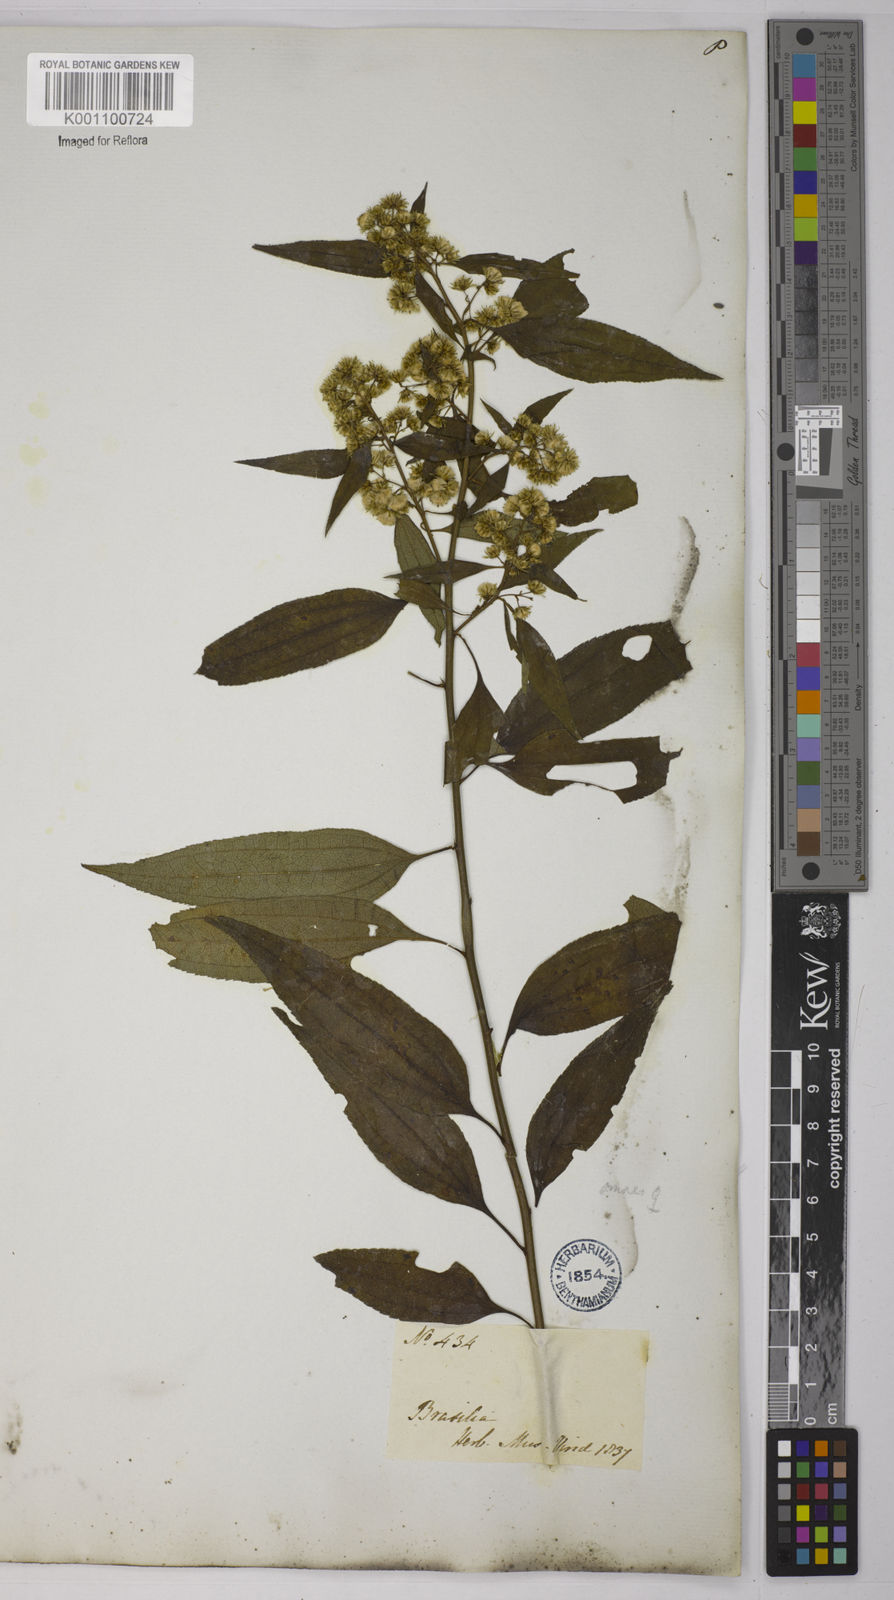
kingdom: Plantae
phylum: Tracheophyta
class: Magnoliopsida
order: Asterales
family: Asteraceae
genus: Baccharis
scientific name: Baccharis oxyodonta
